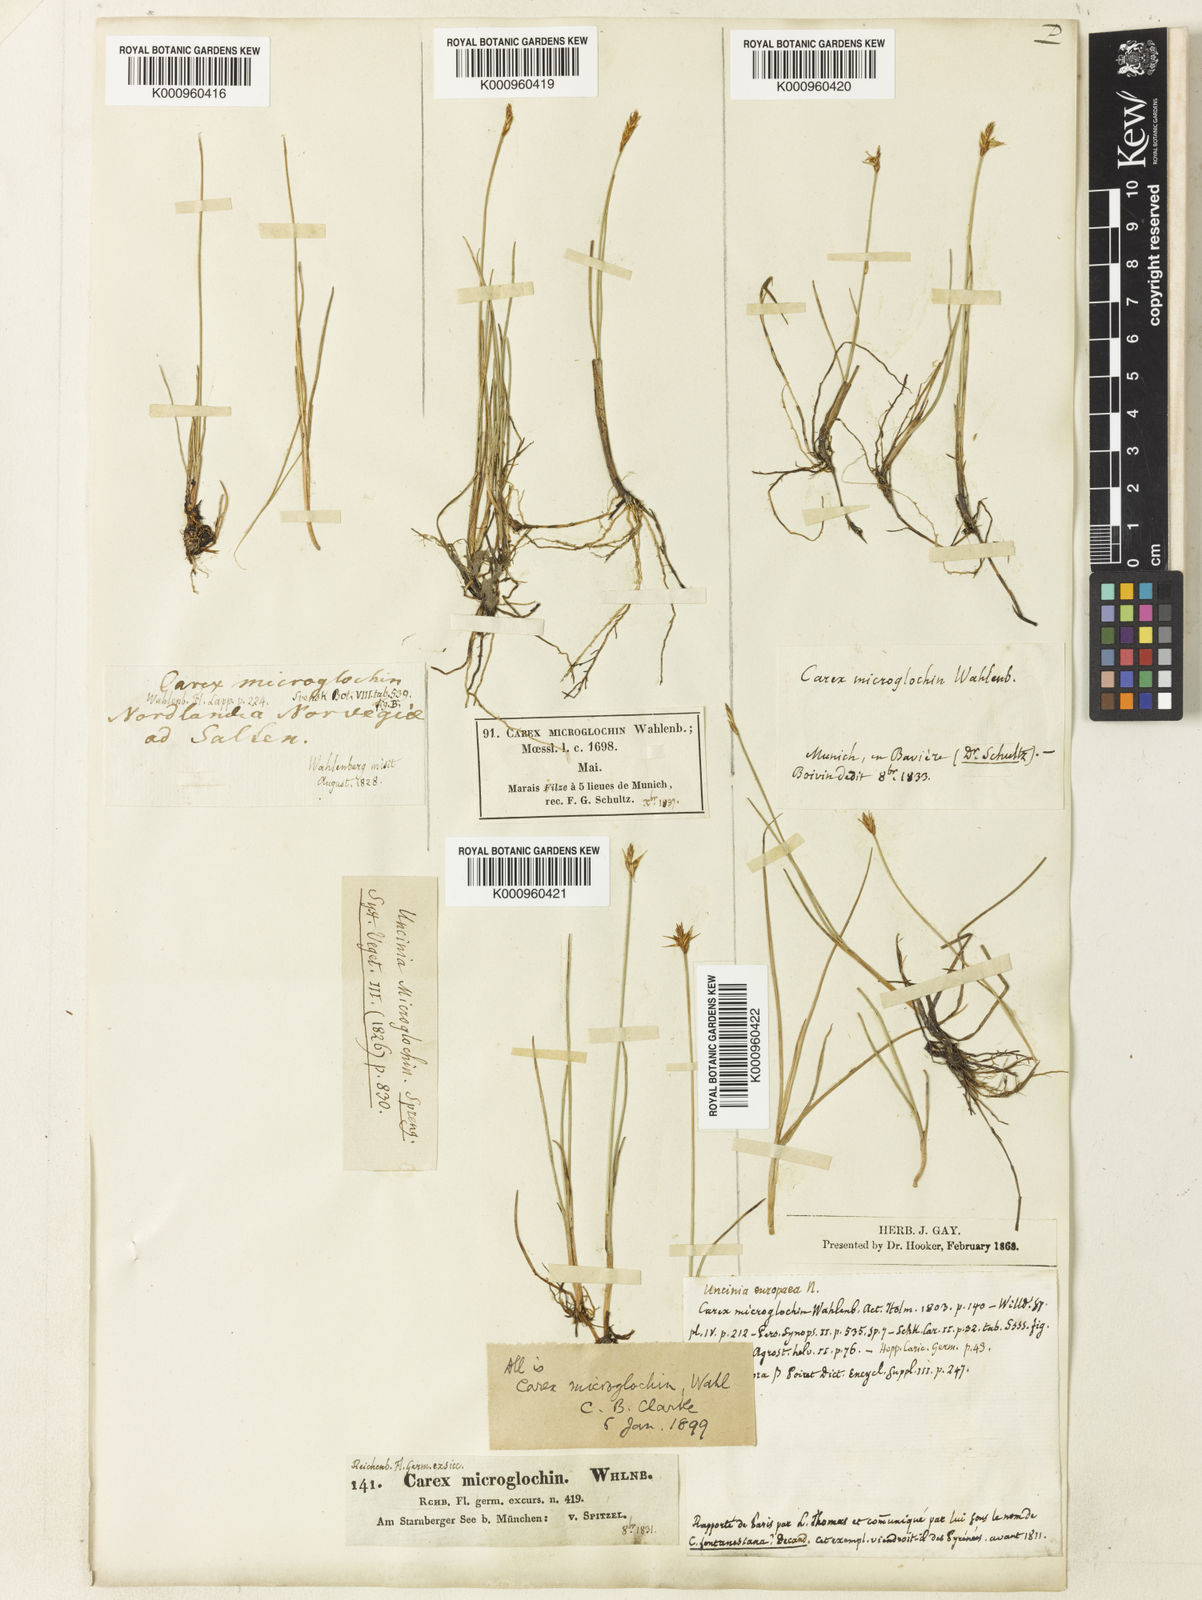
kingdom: Plantae
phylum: Tracheophyta
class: Liliopsida
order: Poales
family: Cyperaceae
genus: Carex
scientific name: Carex microglochin
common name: Bristle sedge
